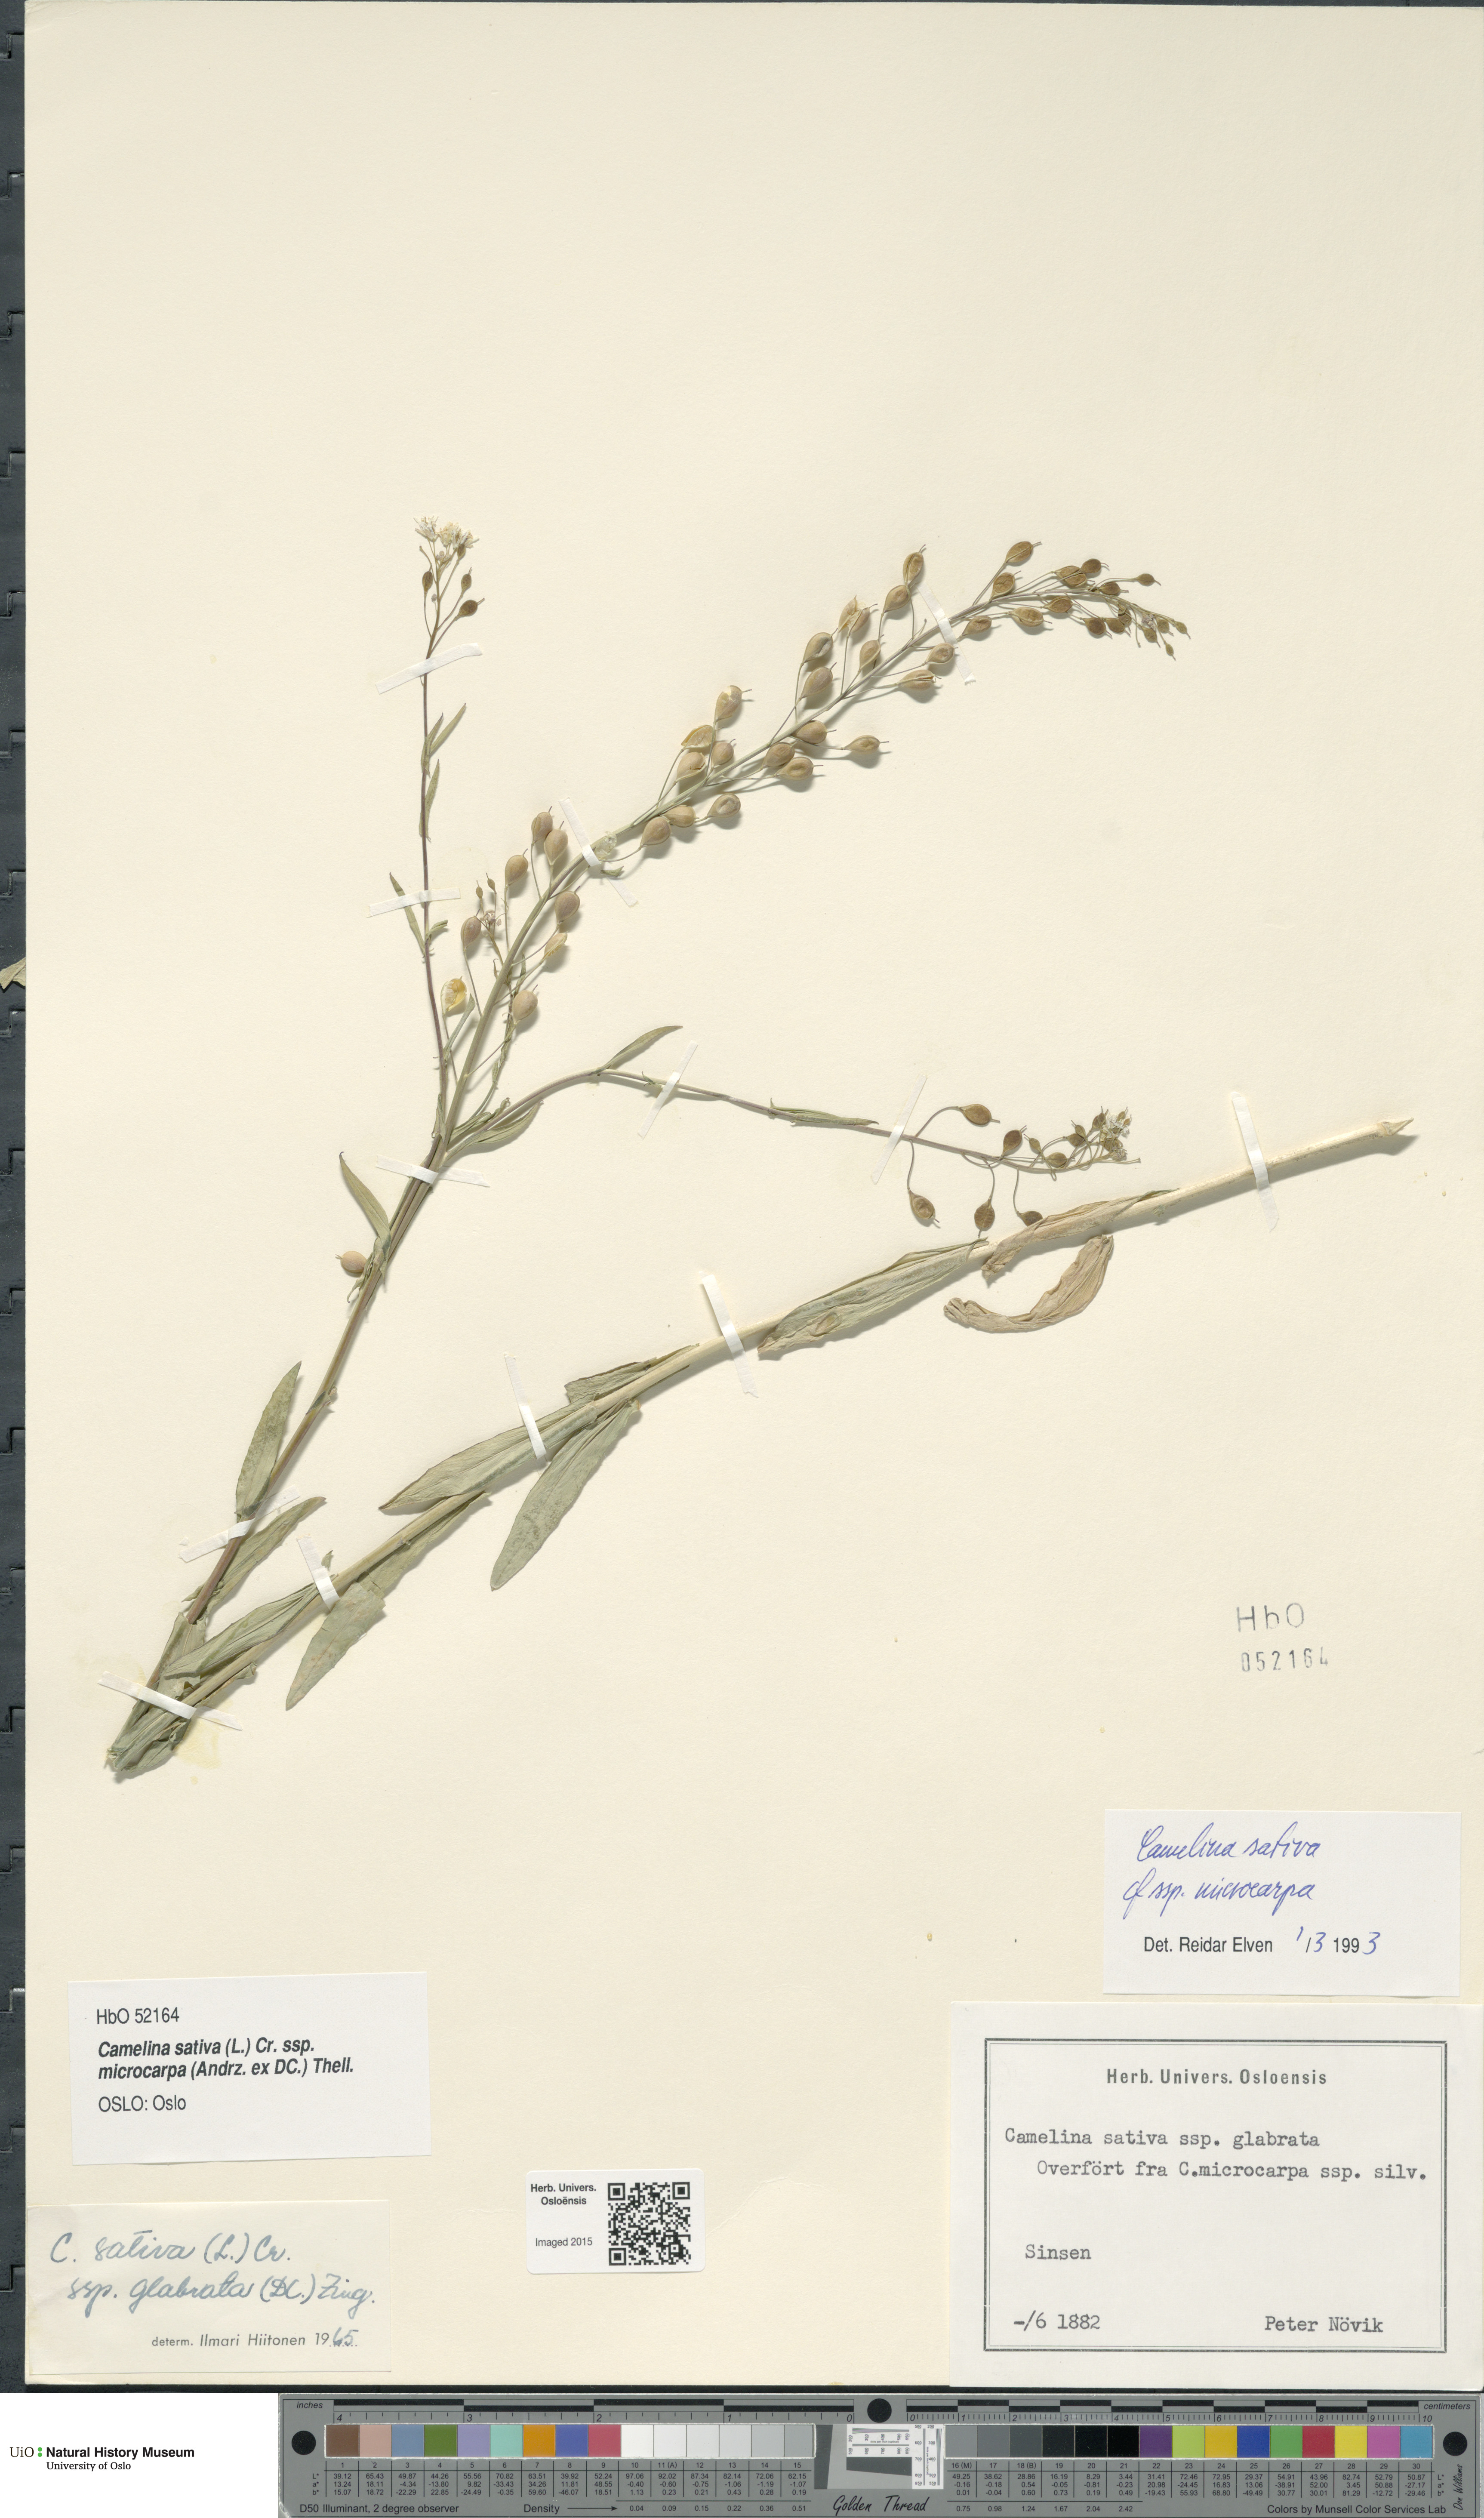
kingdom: Plantae
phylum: Tracheophyta
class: Magnoliopsida
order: Brassicales
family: Brassicaceae
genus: Camelina
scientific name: Camelina sativa
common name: Gold-of-pleasure
